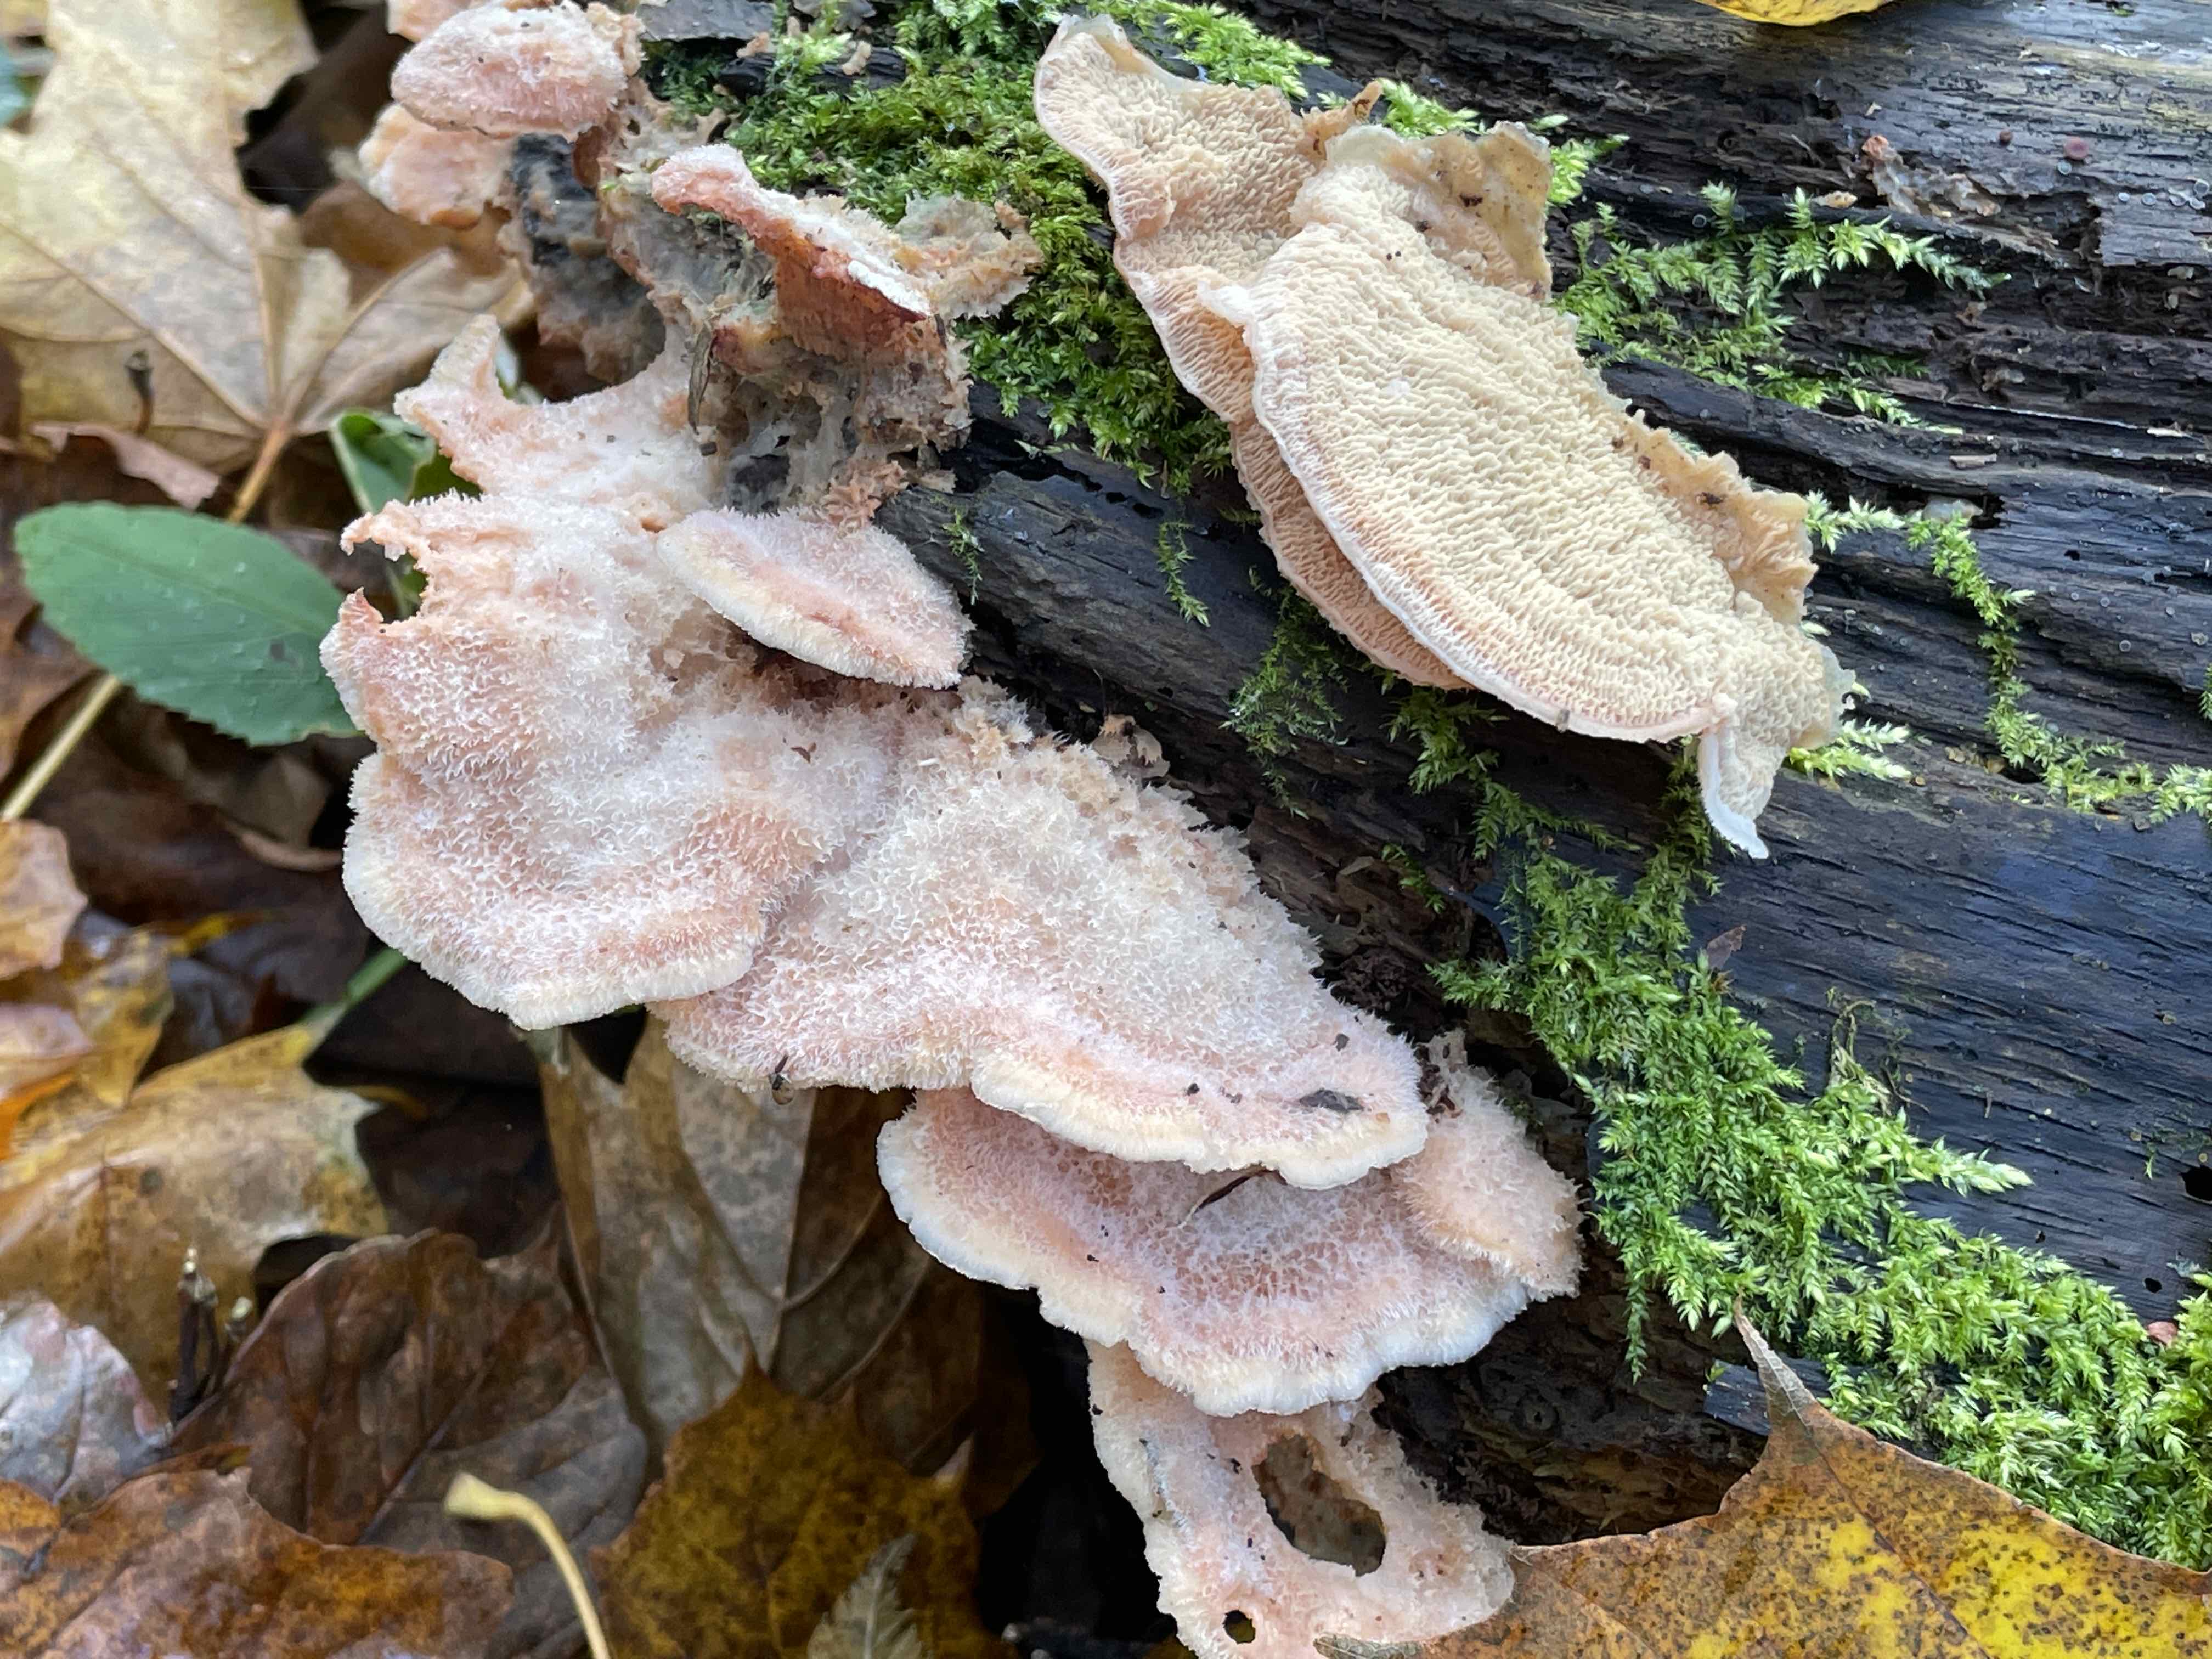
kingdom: Fungi
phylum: Basidiomycota
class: Agaricomycetes
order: Polyporales
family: Meruliaceae
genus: Phlebia
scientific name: Phlebia tremellosa
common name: bævrende åresvamp
